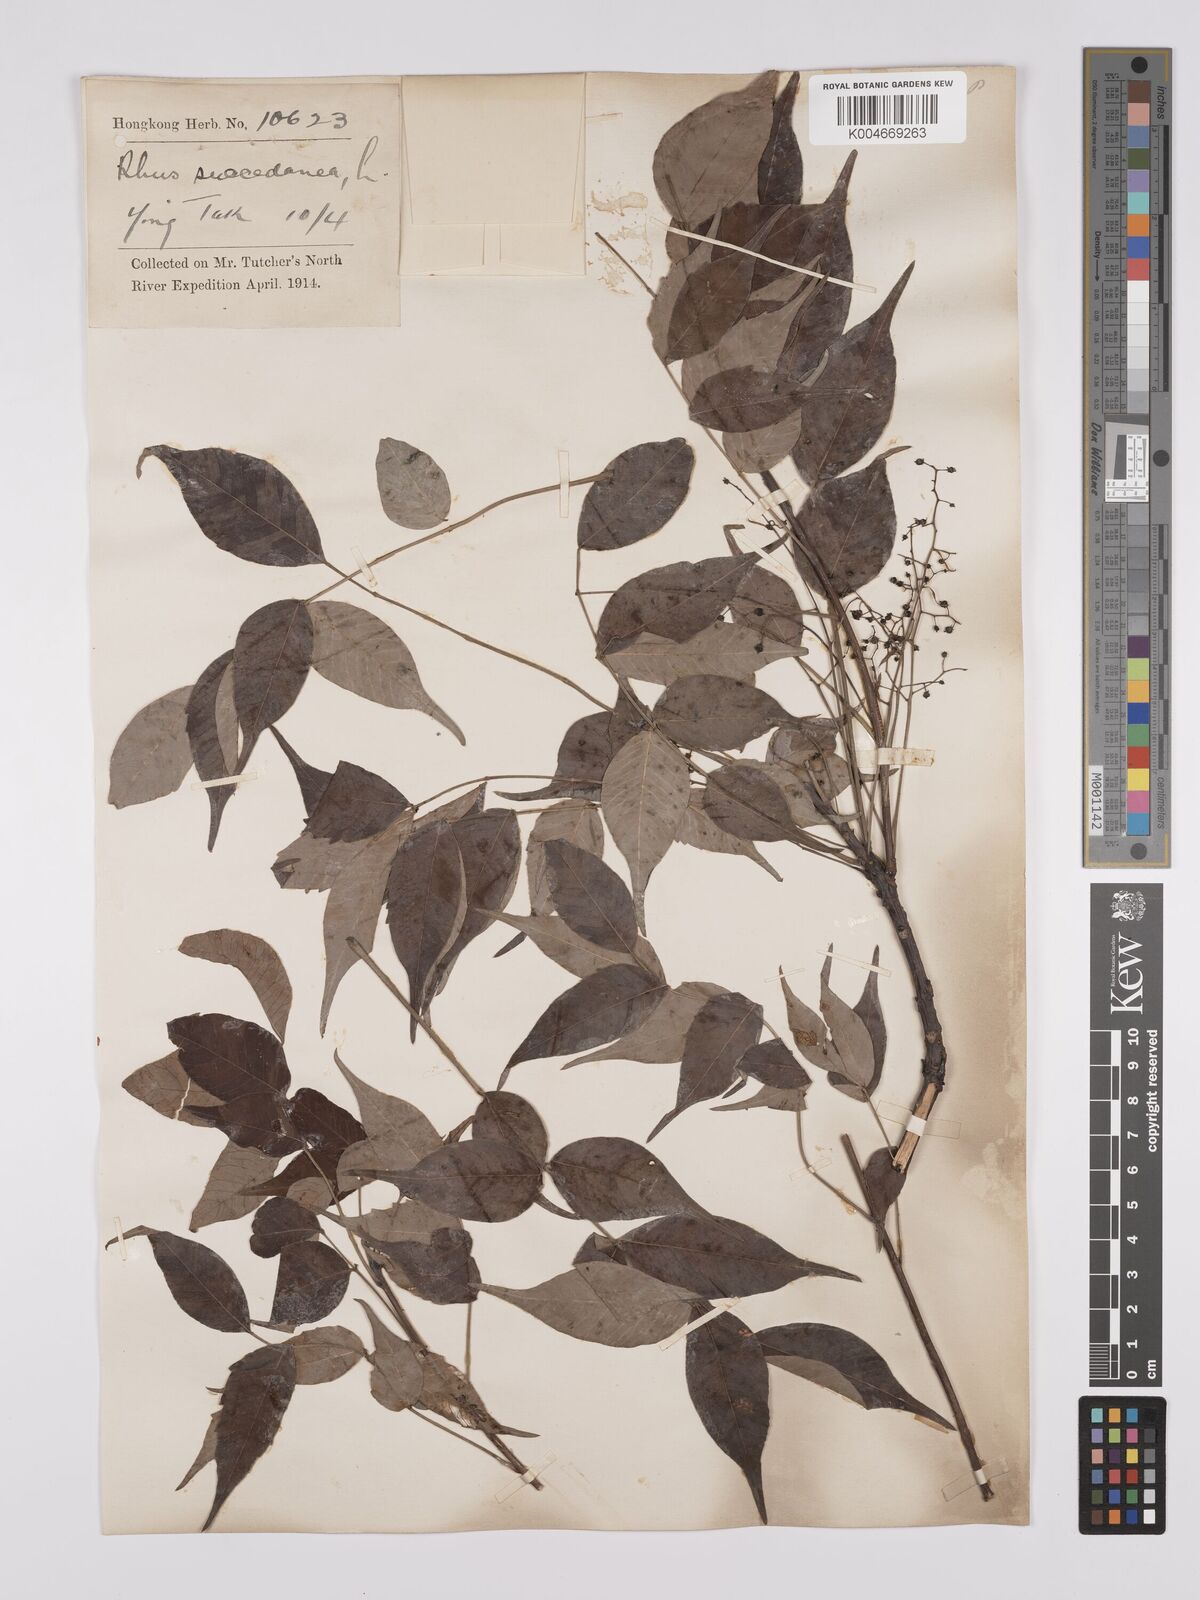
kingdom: Plantae
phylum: Tracheophyta
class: Magnoliopsida
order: Sapindales
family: Anacardiaceae
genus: Toxicodendron
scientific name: Toxicodendron succedaneum
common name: Wax tree
